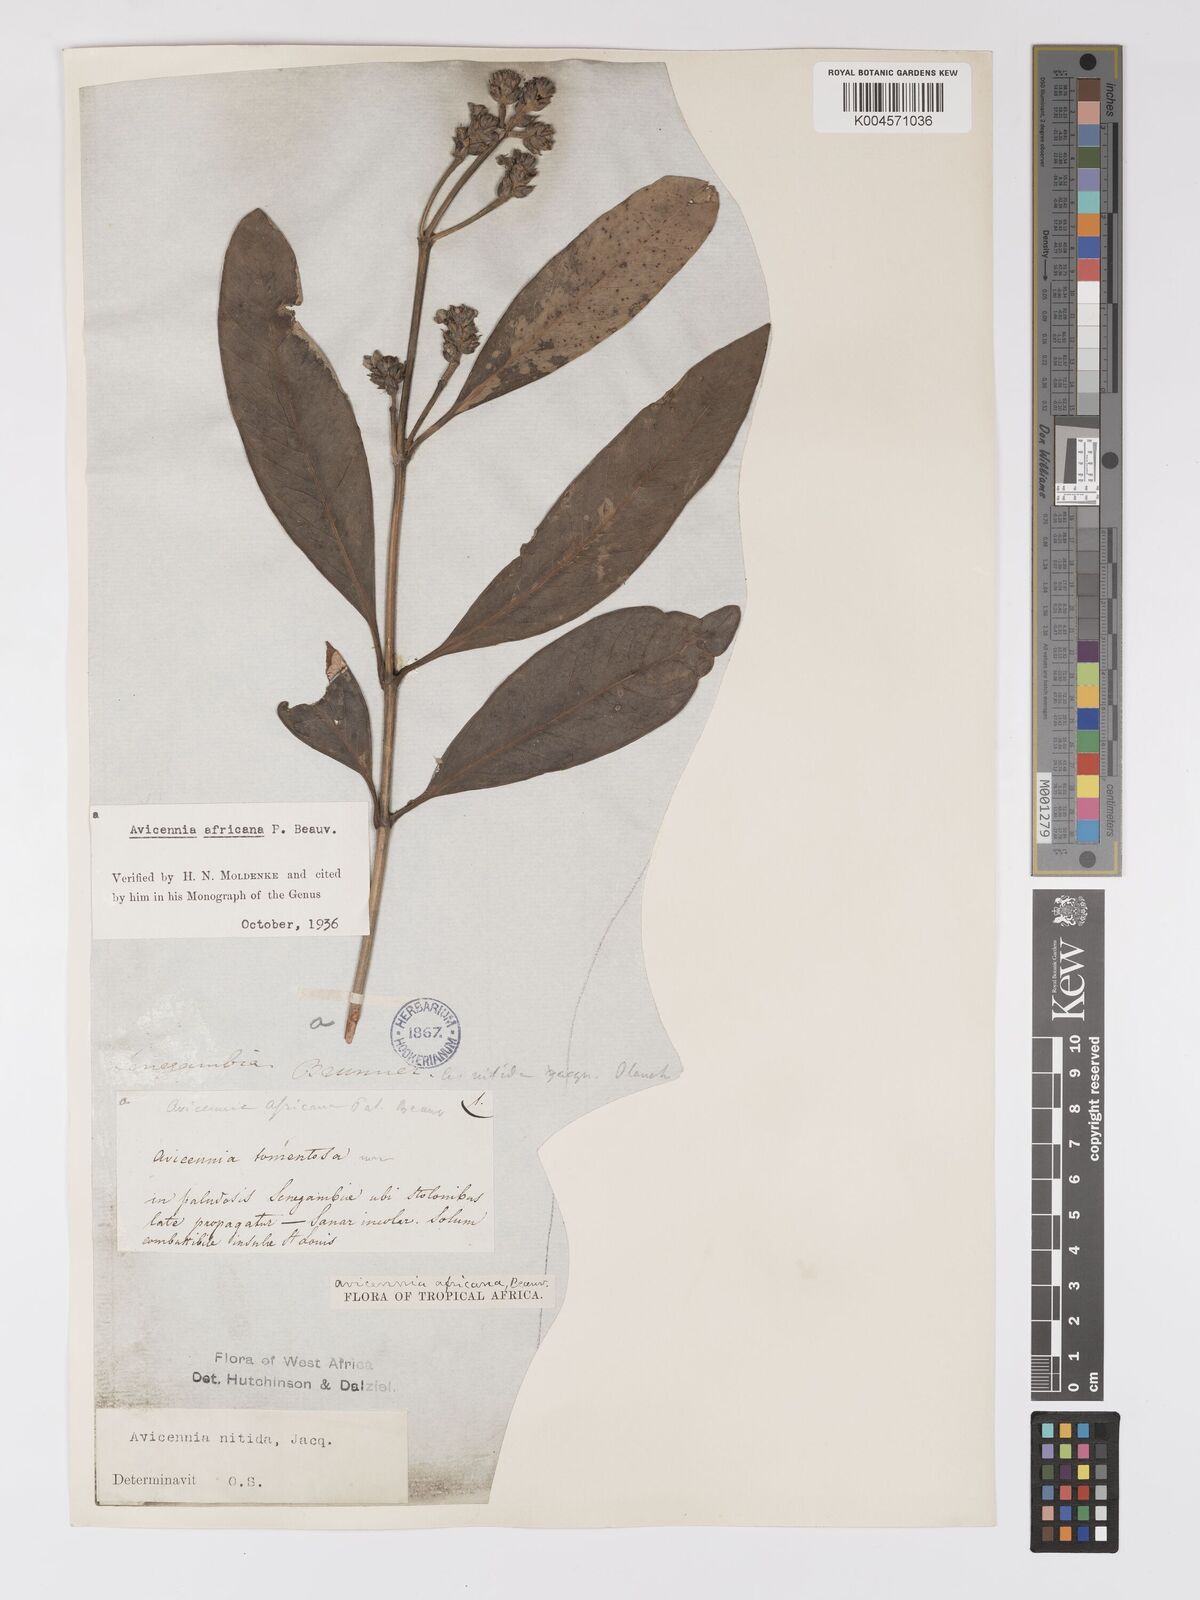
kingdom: Plantae
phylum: Tracheophyta
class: Magnoliopsida
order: Lamiales
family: Acanthaceae
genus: Avicennia
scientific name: Avicennia germinans
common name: Black mangrove
